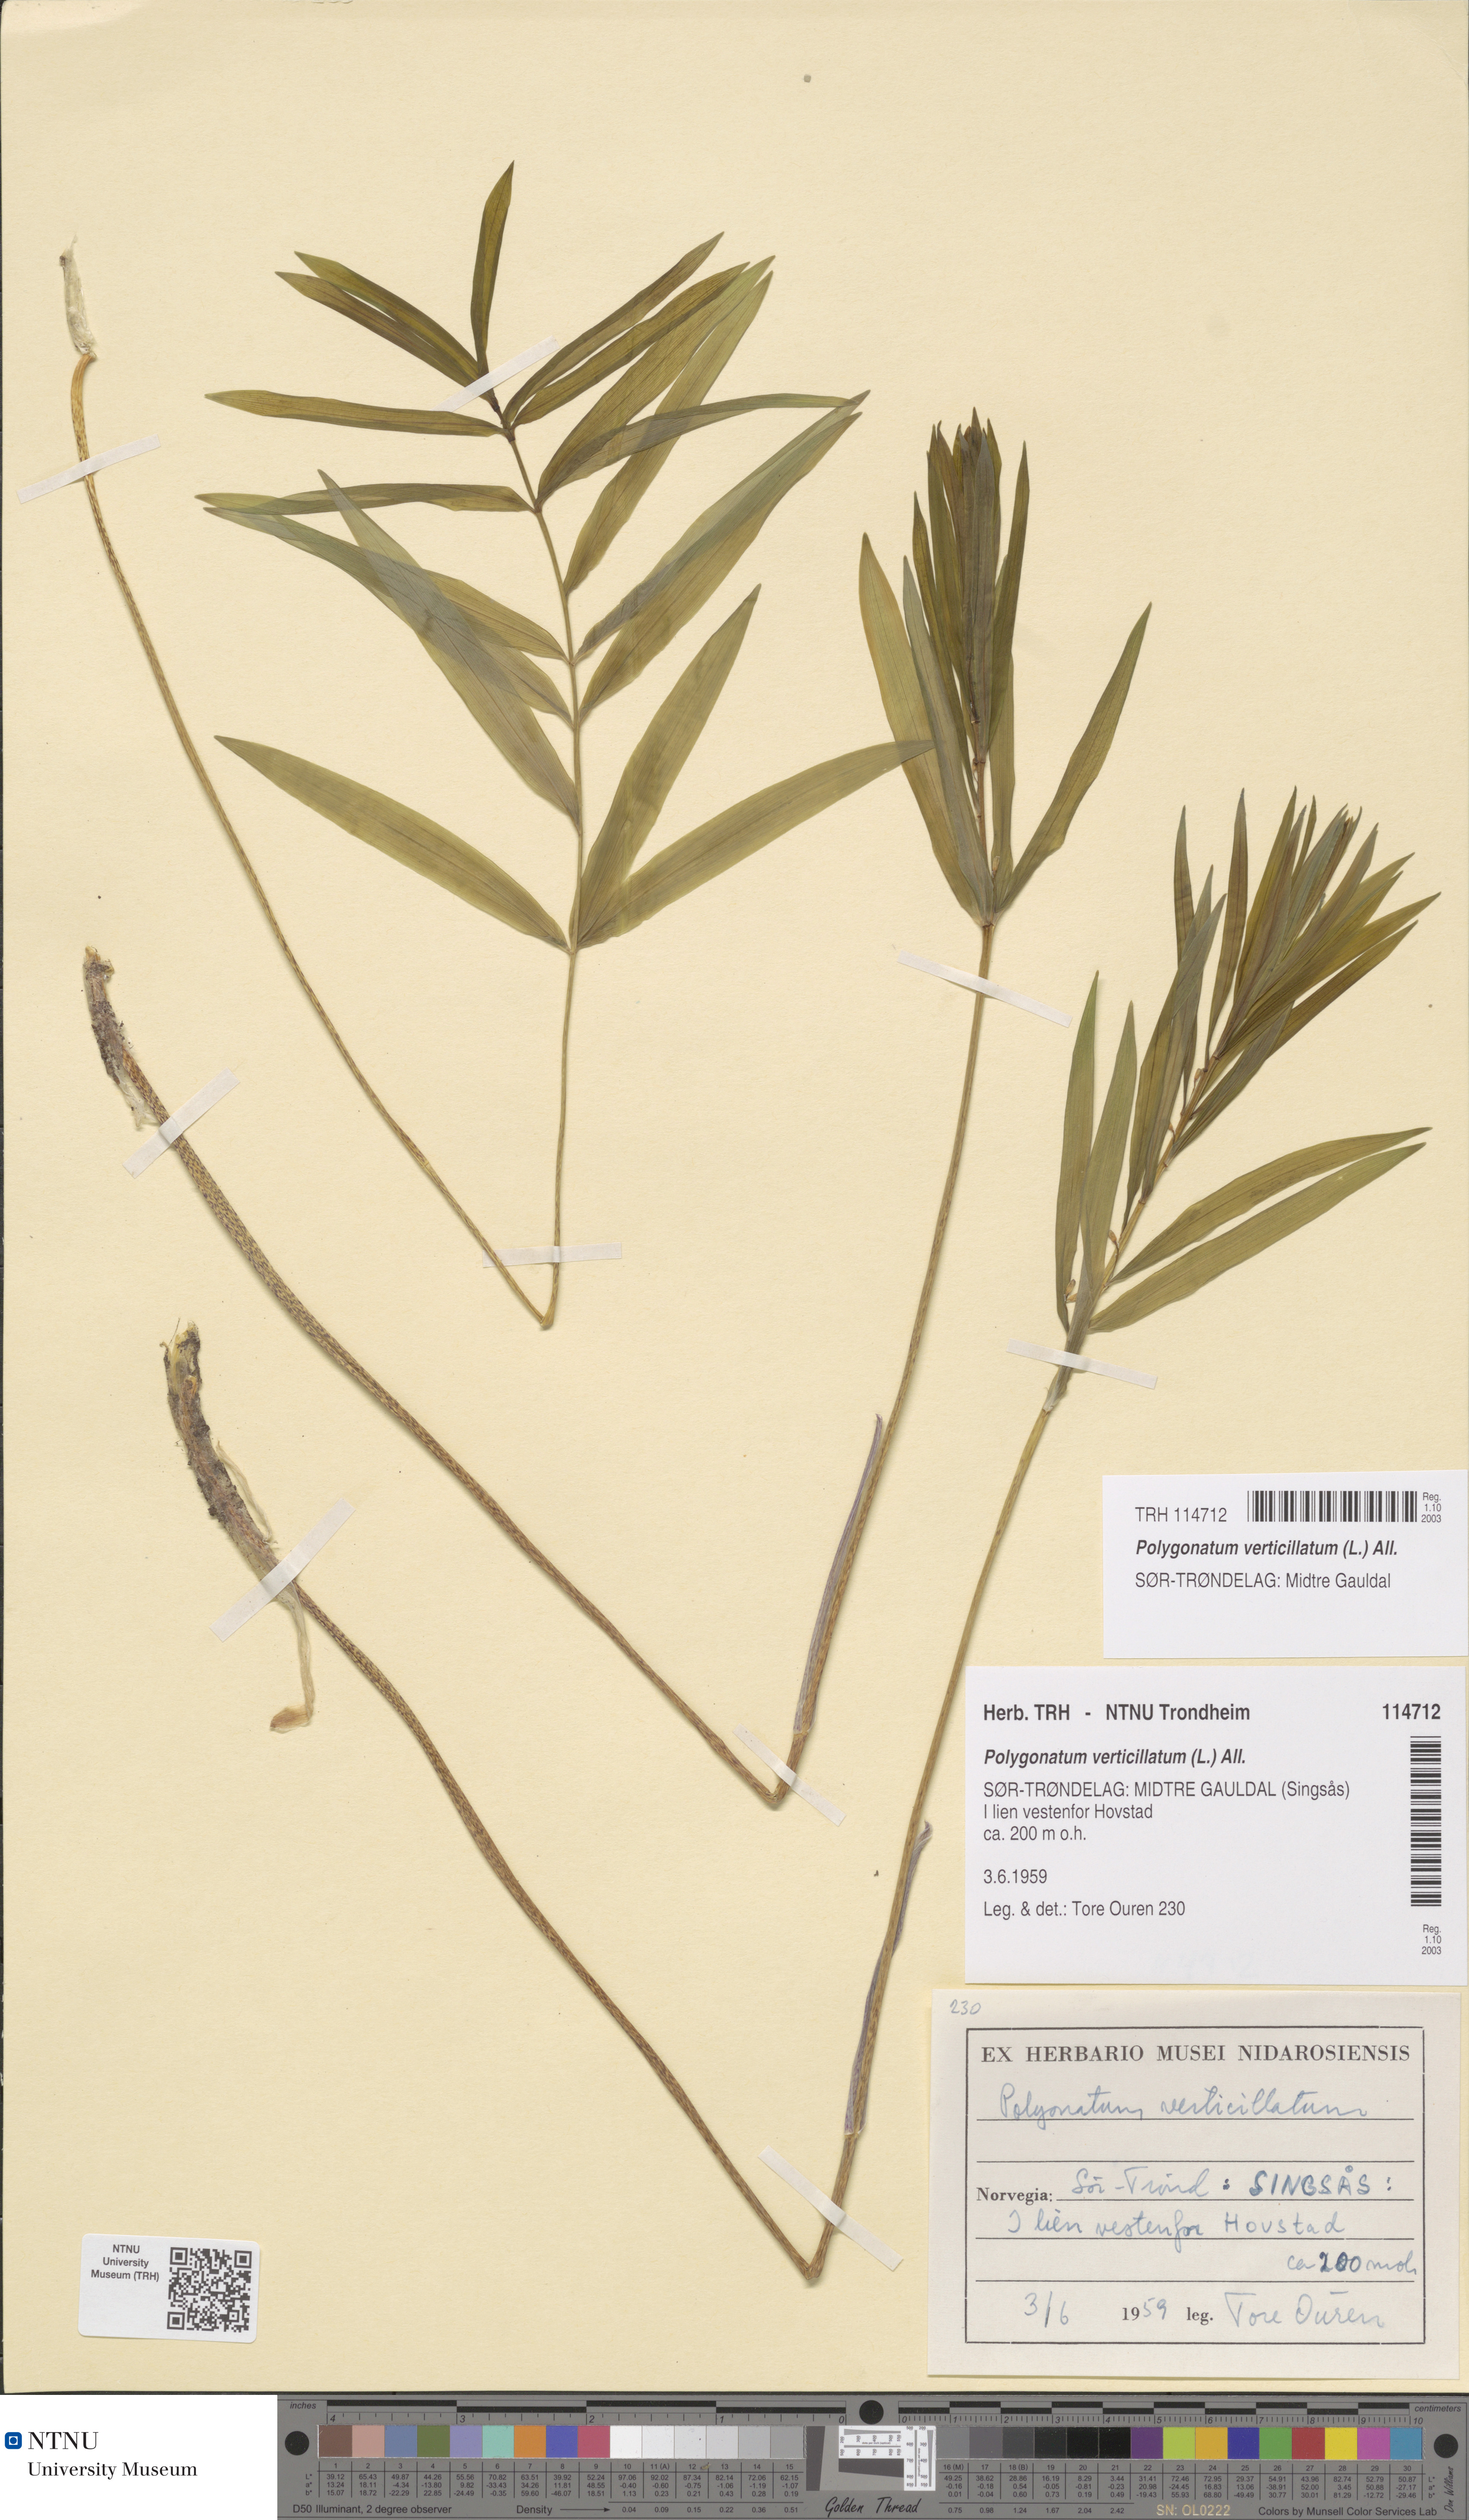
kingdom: Plantae
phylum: Tracheophyta
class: Liliopsida
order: Asparagales
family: Asparagaceae
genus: Polygonatum
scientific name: Polygonatum verticillatum
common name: Whorled solomon's-seal
